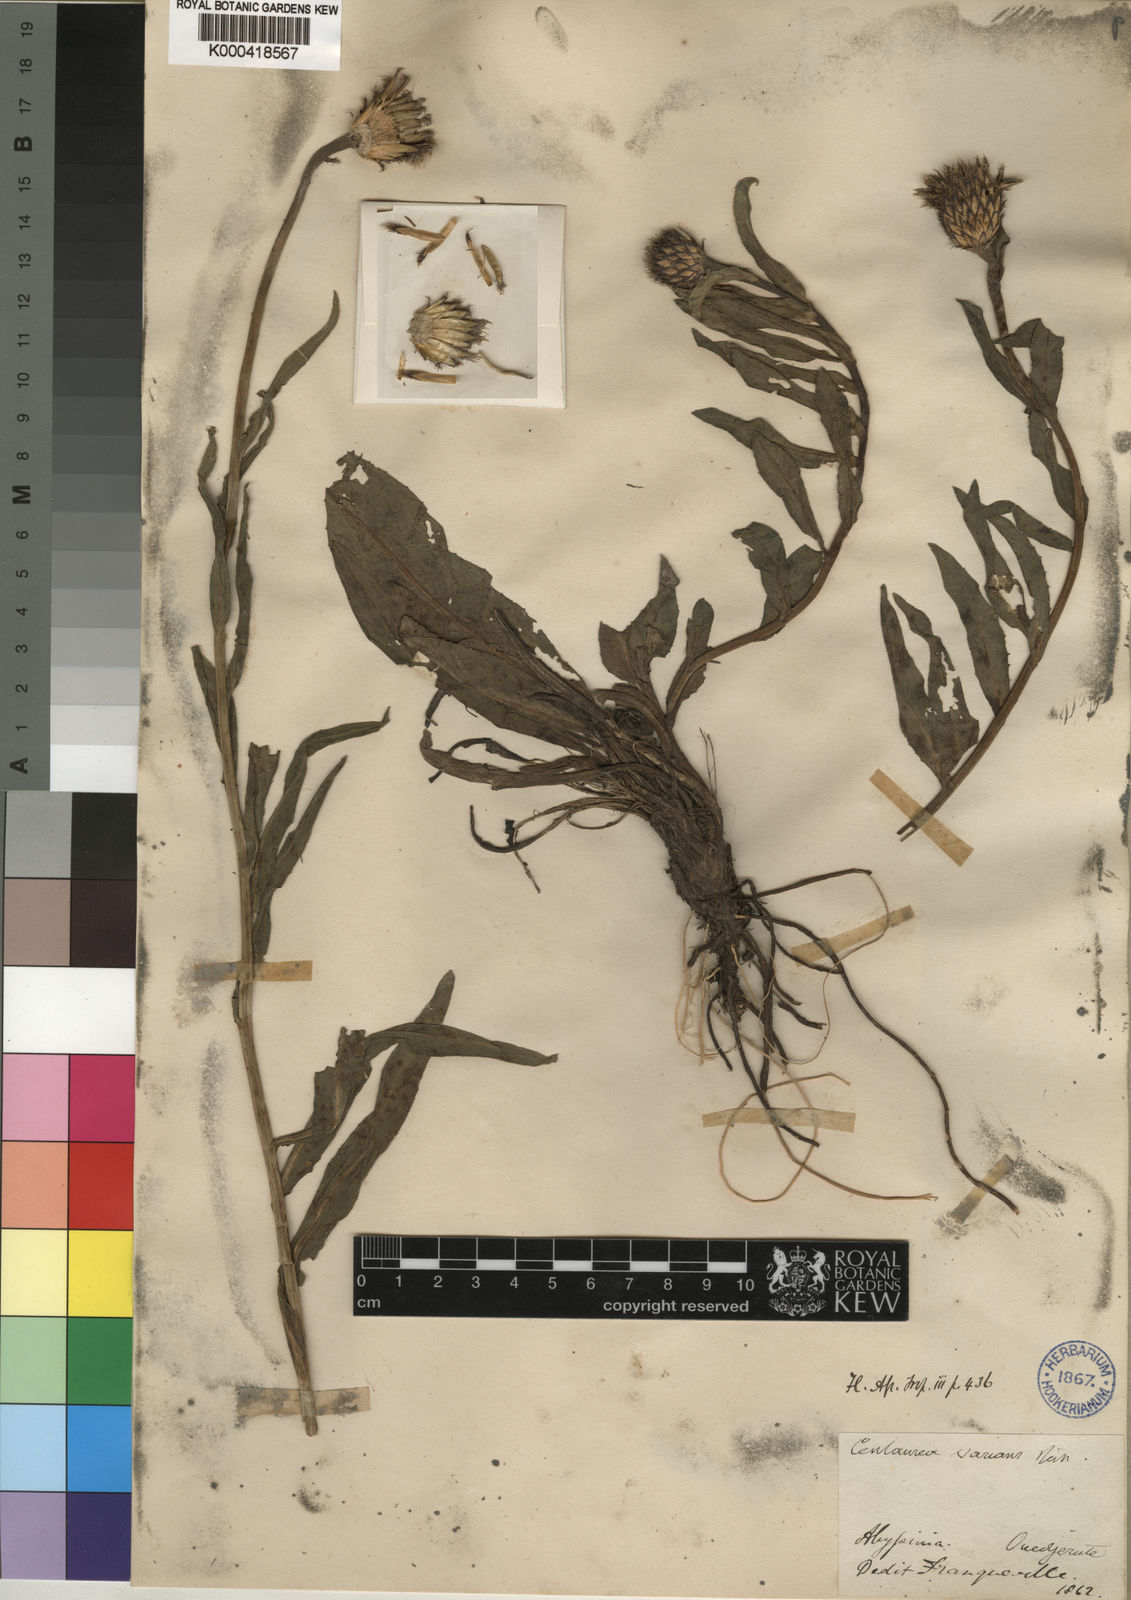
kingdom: Plantae
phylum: Tracheophyta
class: Magnoliopsida
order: Asterales
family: Asteraceae
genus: Plectocephalus
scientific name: Plectocephalus
